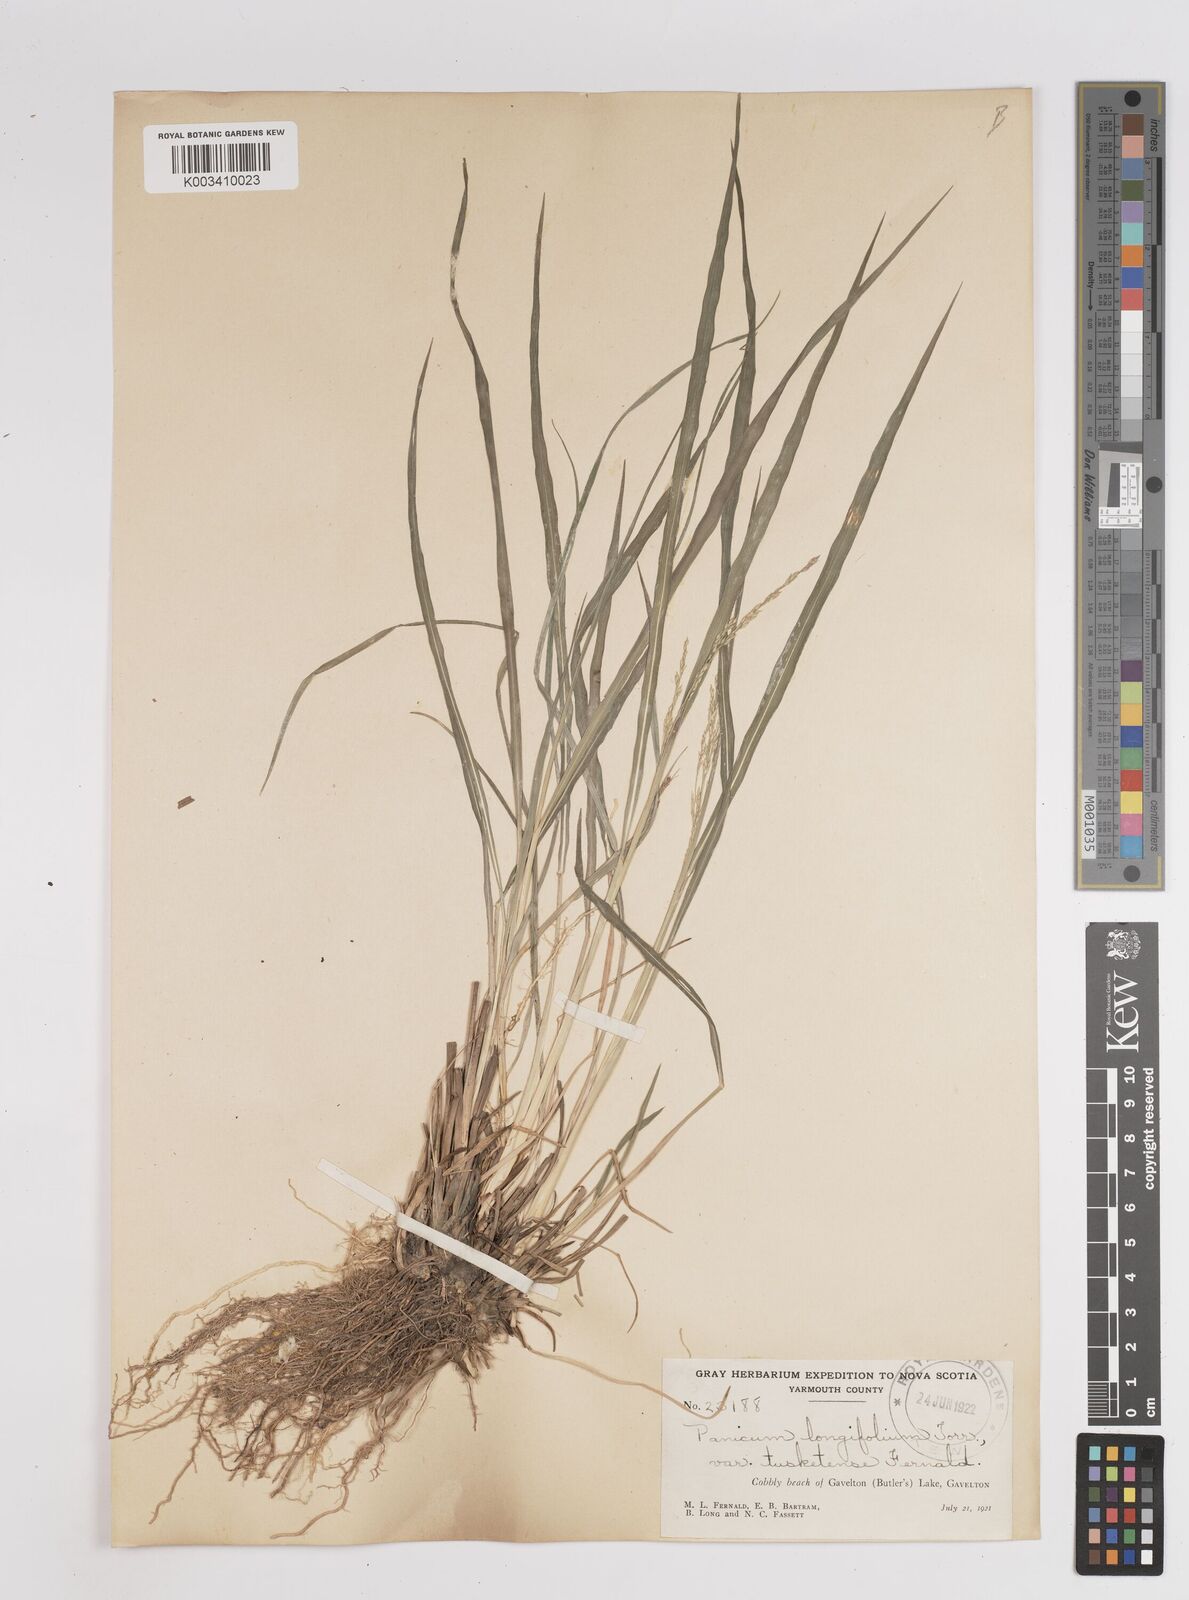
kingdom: Plantae
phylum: Tracheophyta
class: Liliopsida
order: Poales
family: Poaceae
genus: Coleataenia
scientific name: Coleataenia longifolia
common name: Long-leaved panicgrass
